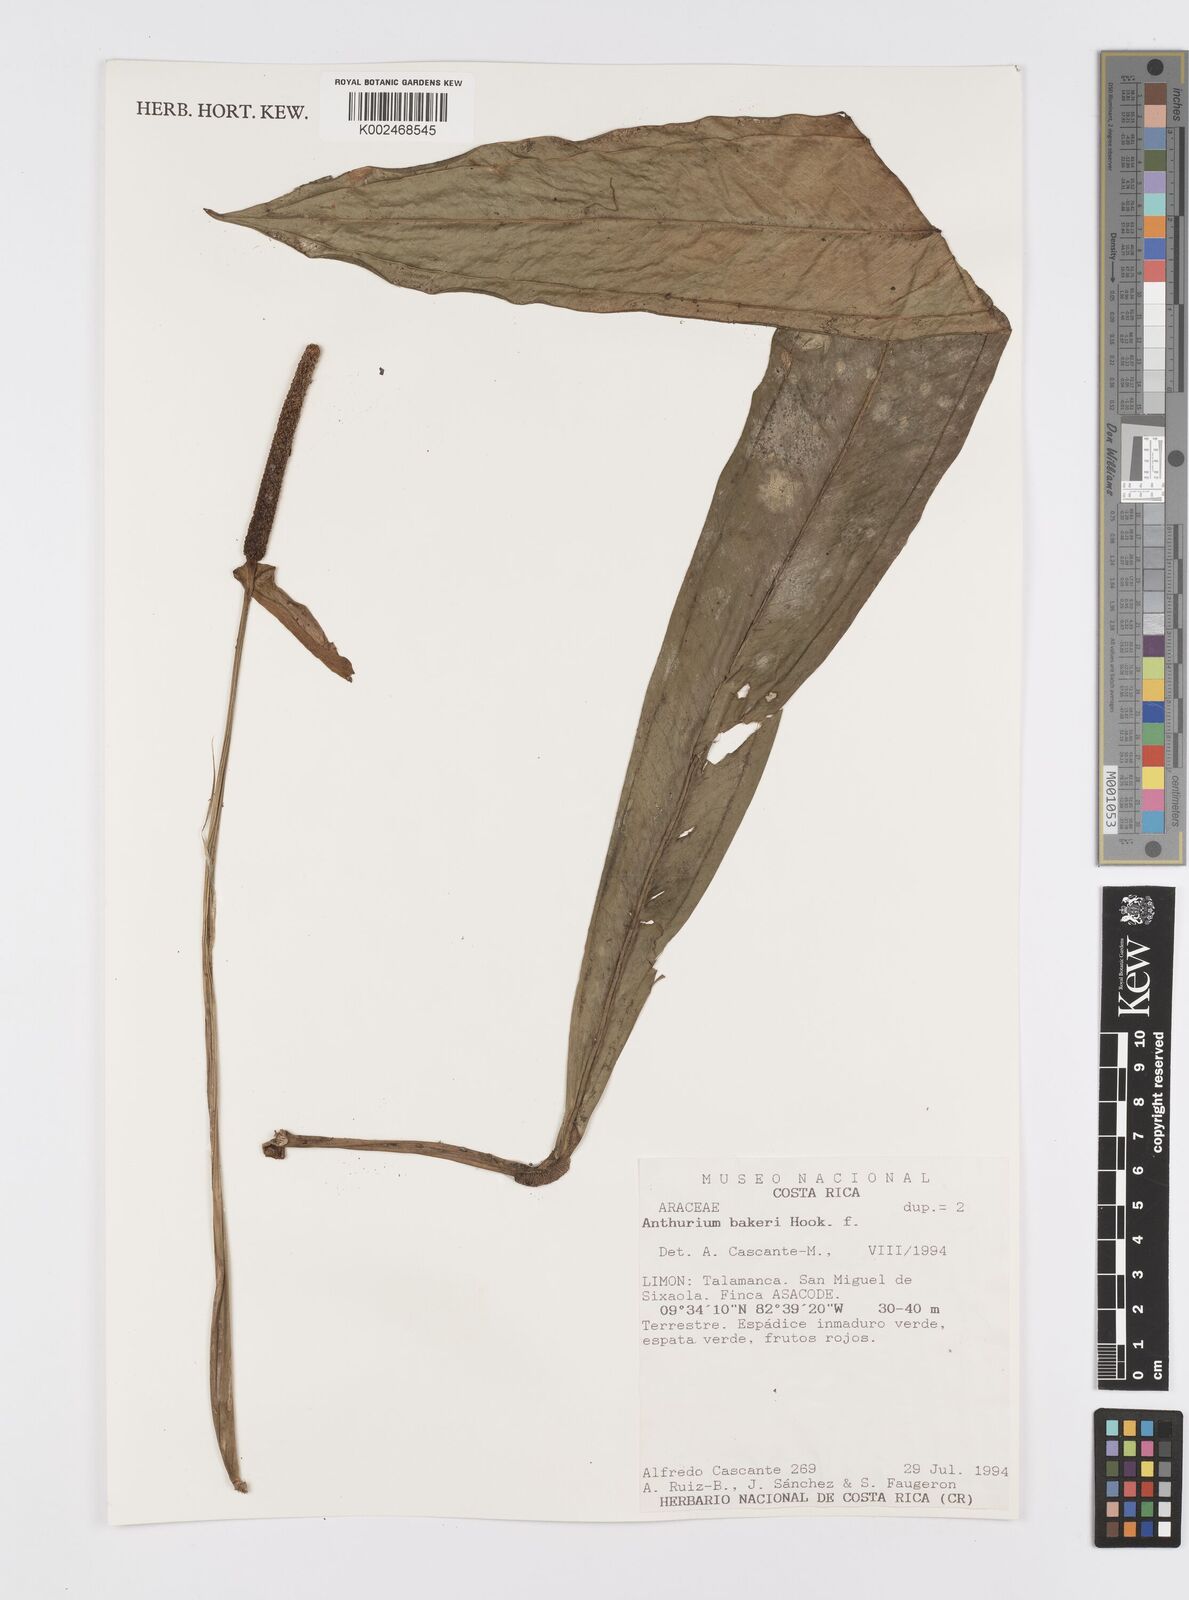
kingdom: Plantae
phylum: Tracheophyta
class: Liliopsida
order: Alismatales
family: Araceae
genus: Anthurium
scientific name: Anthurium bakeri
